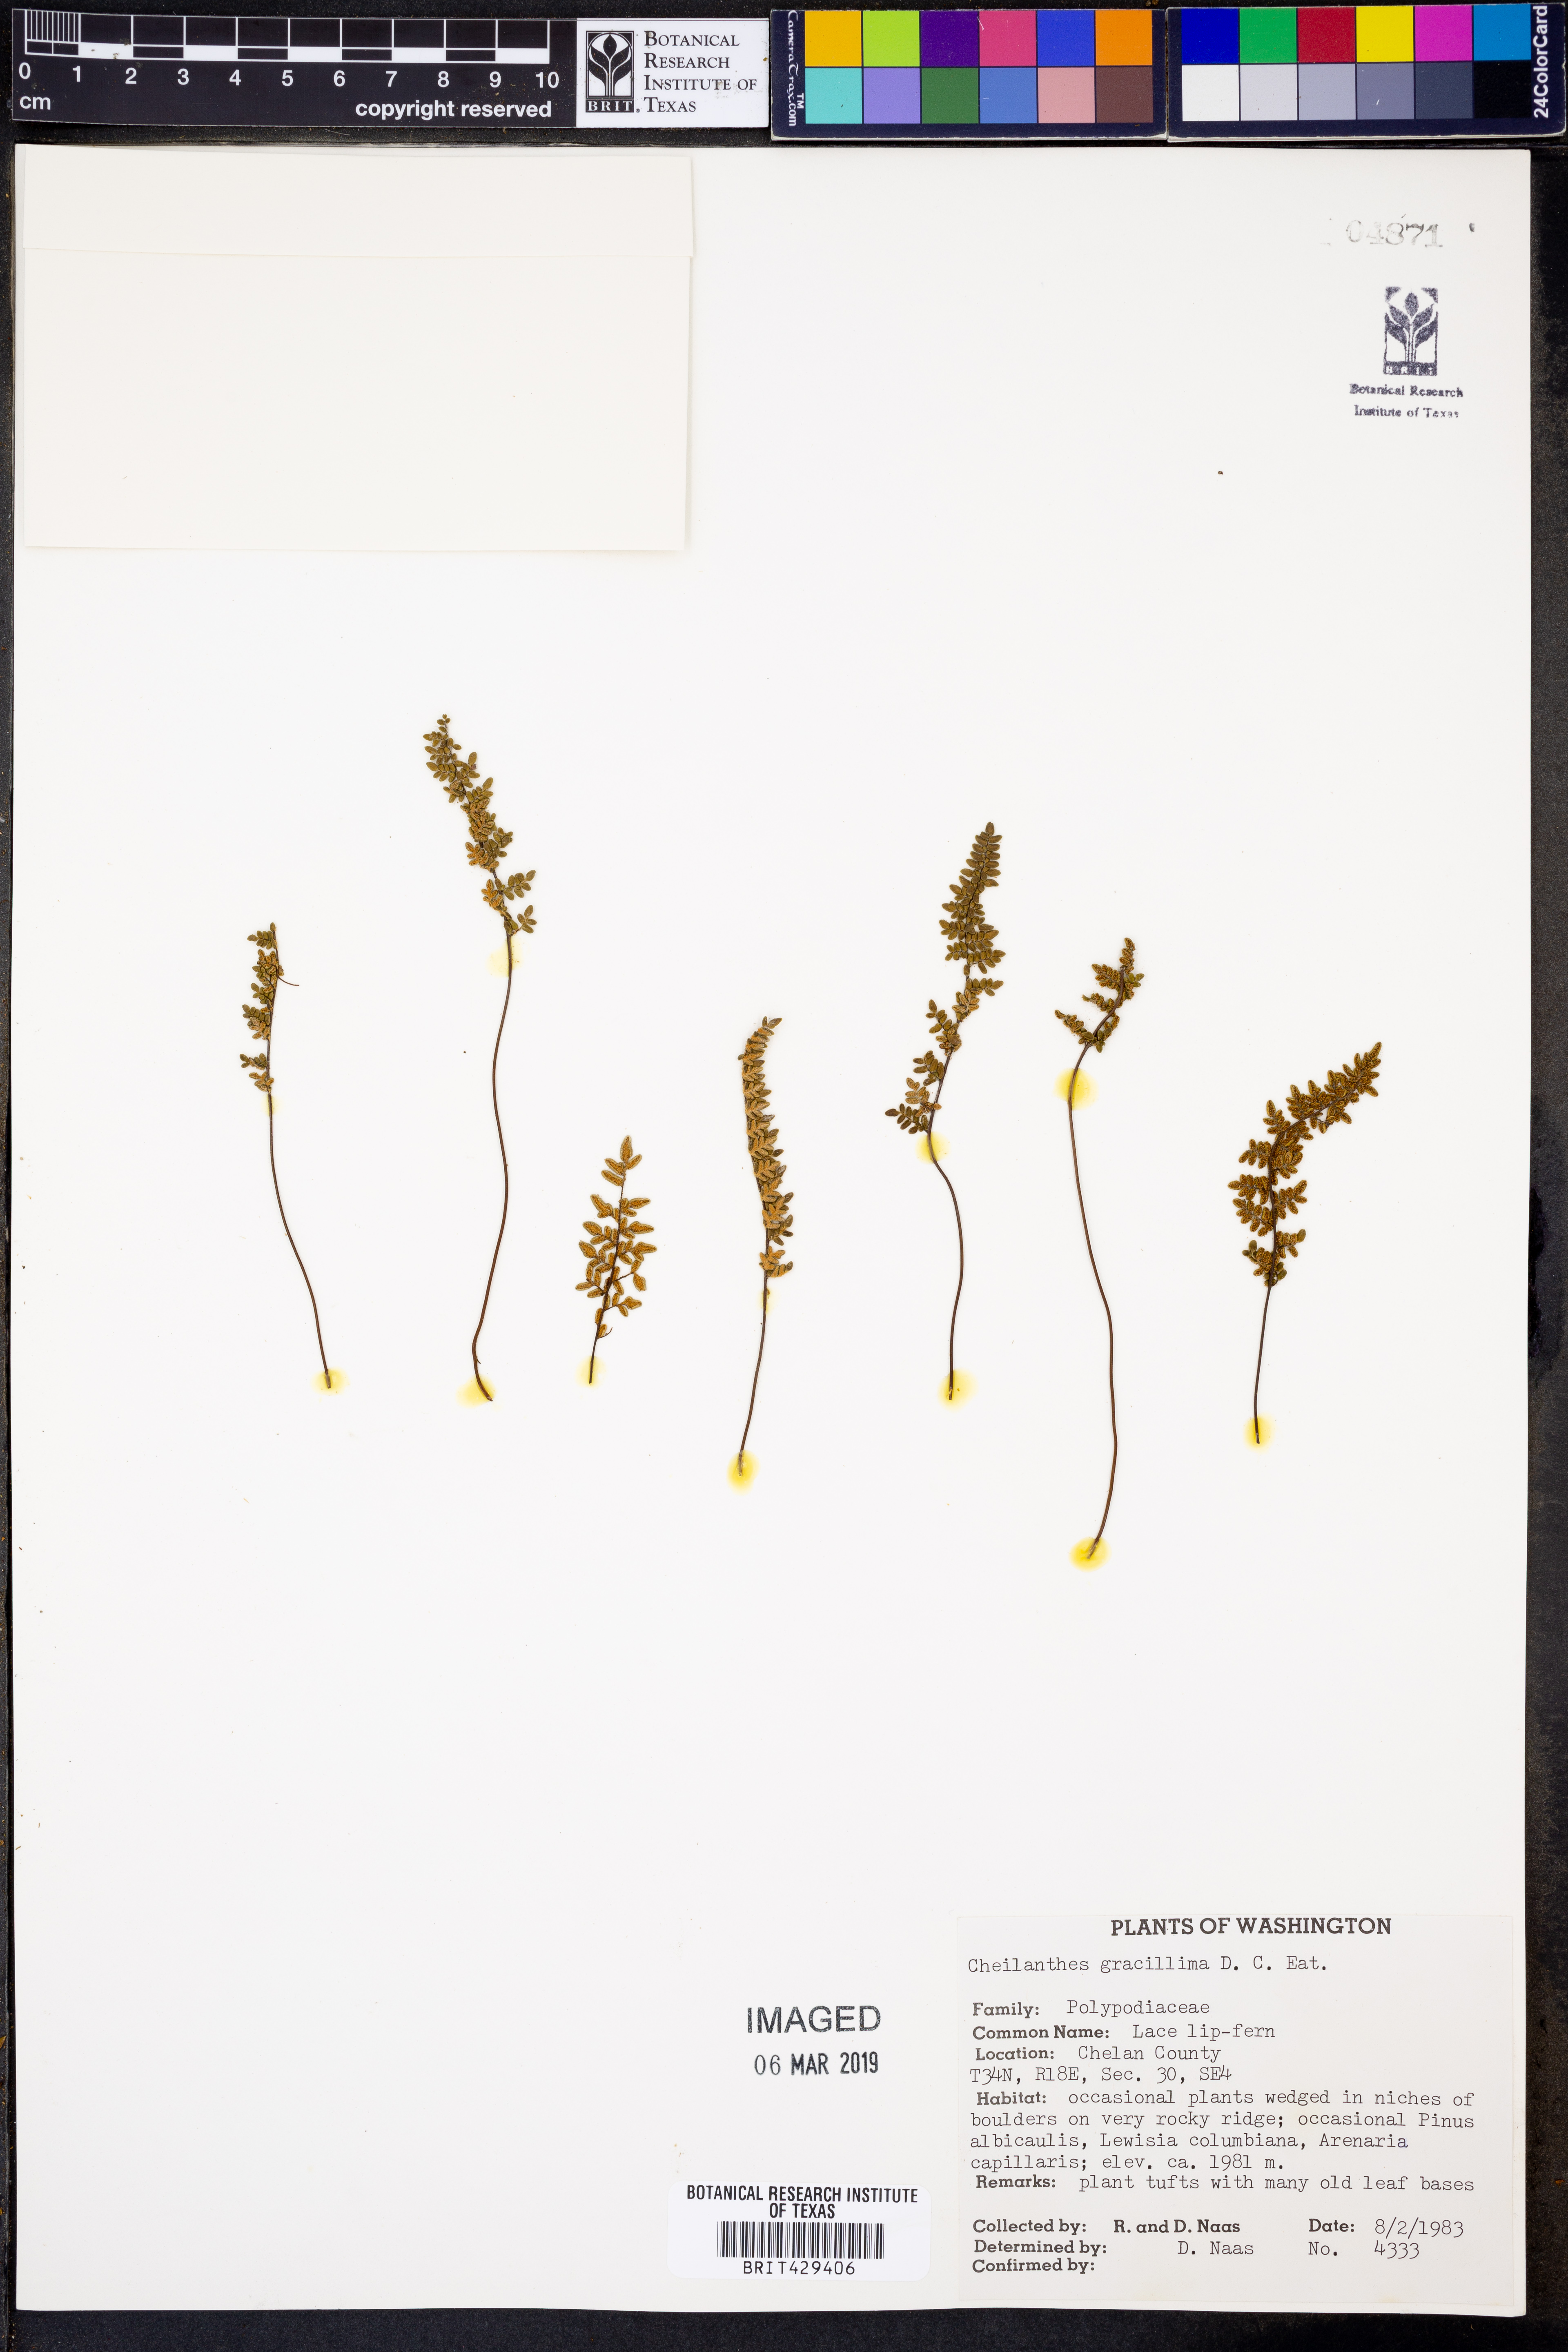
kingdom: Plantae
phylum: Tracheophyta
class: Polypodiopsida
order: Polypodiales
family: Pteridaceae
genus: Myriopteris
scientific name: Myriopteris gracillima
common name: Lace fern
